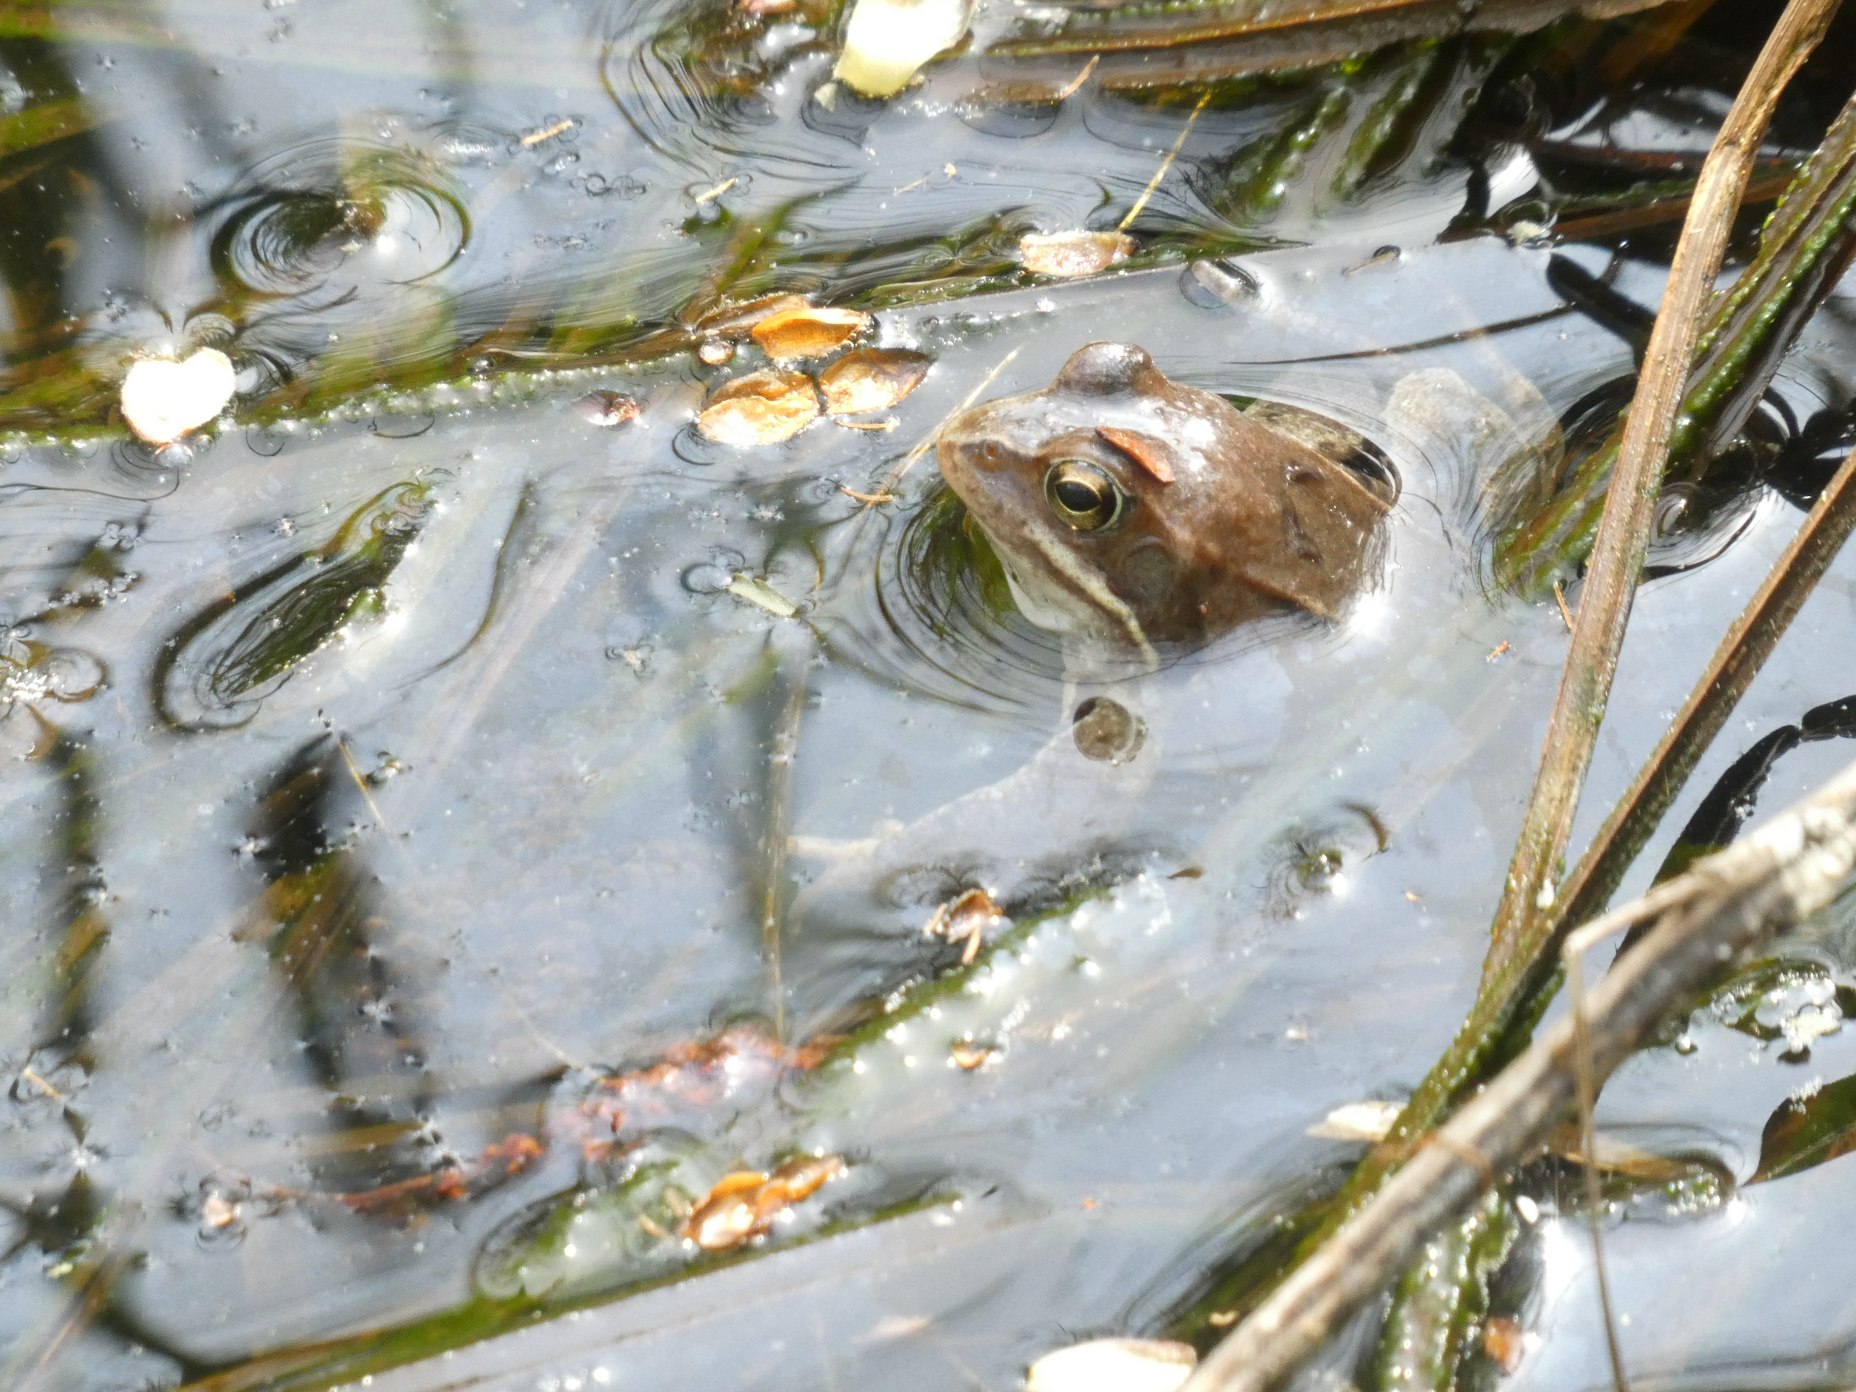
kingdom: Animalia
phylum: Chordata
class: Amphibia
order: Anura
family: Ranidae
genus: Rana
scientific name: Rana arvalis
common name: Spidssnudet frø
